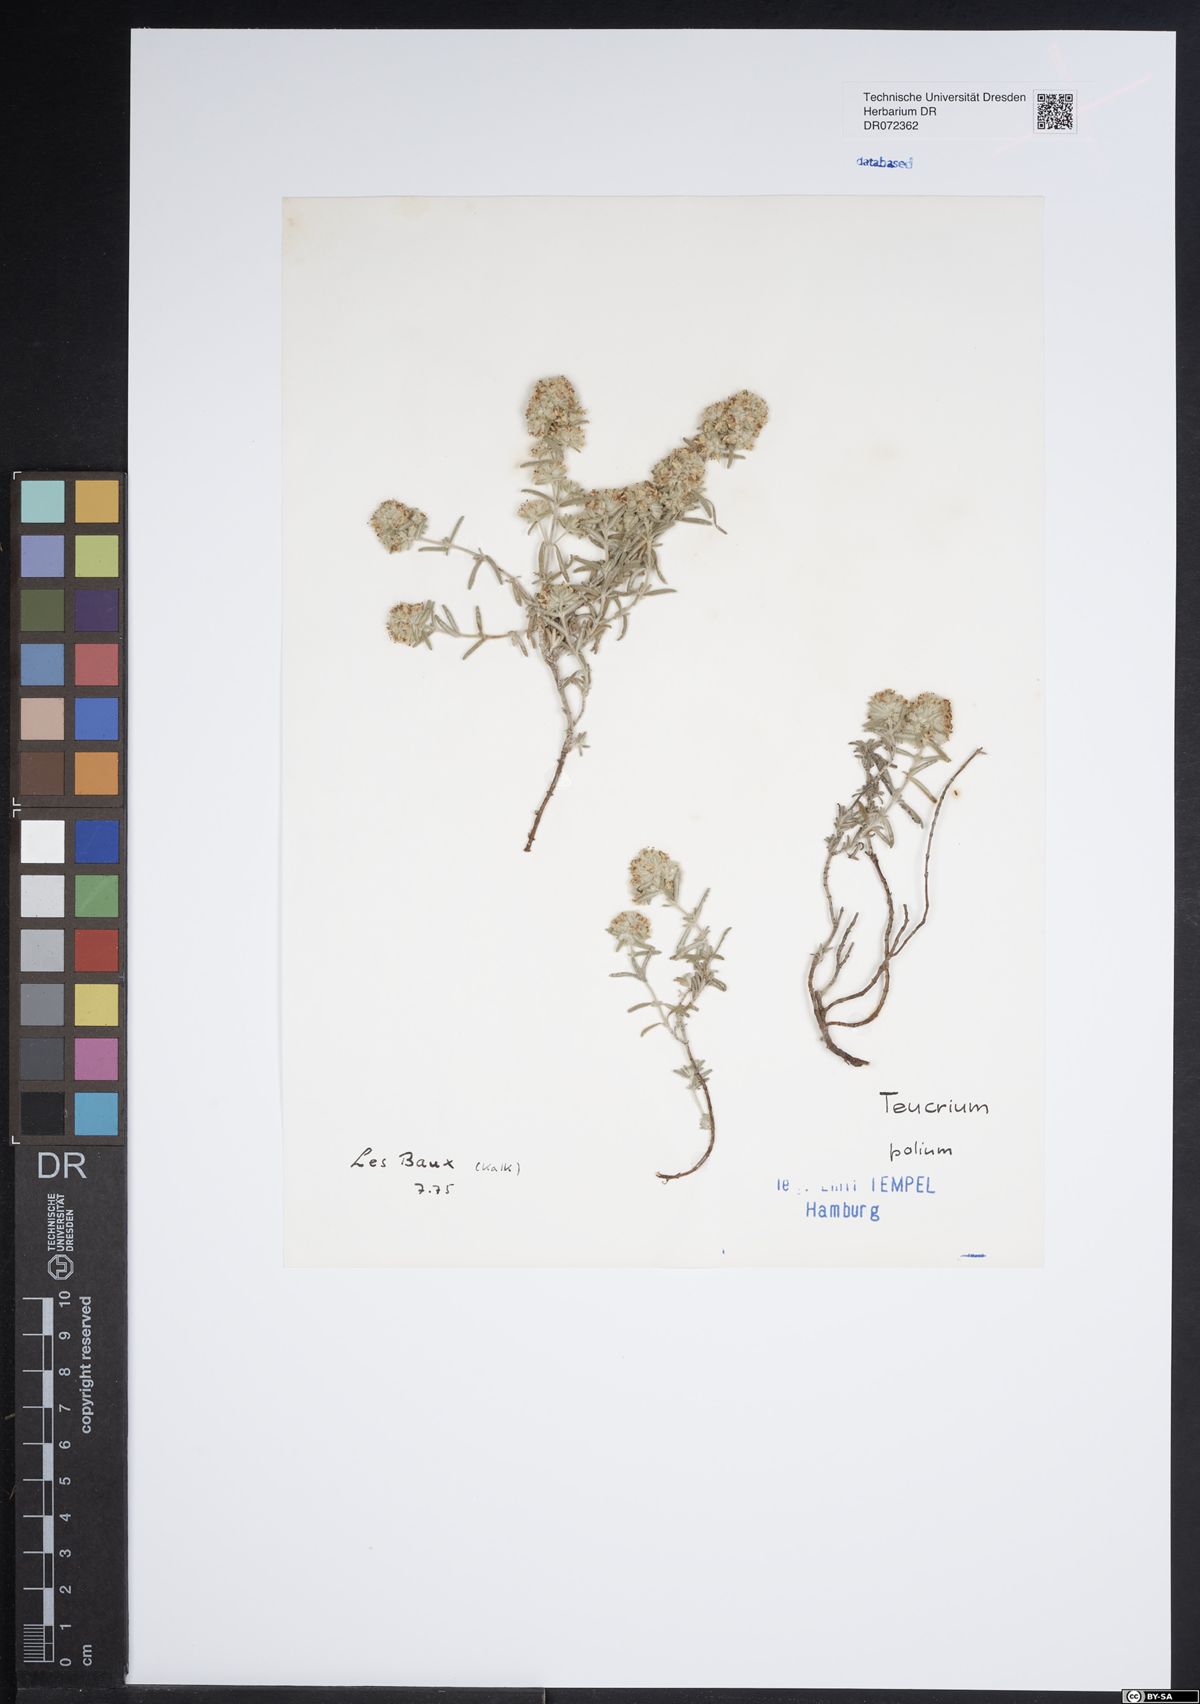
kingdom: Plantae
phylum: Tracheophyta
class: Magnoliopsida
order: Lamiales
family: Lamiaceae
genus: Teucrium
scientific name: Teucrium polium
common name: Poley
